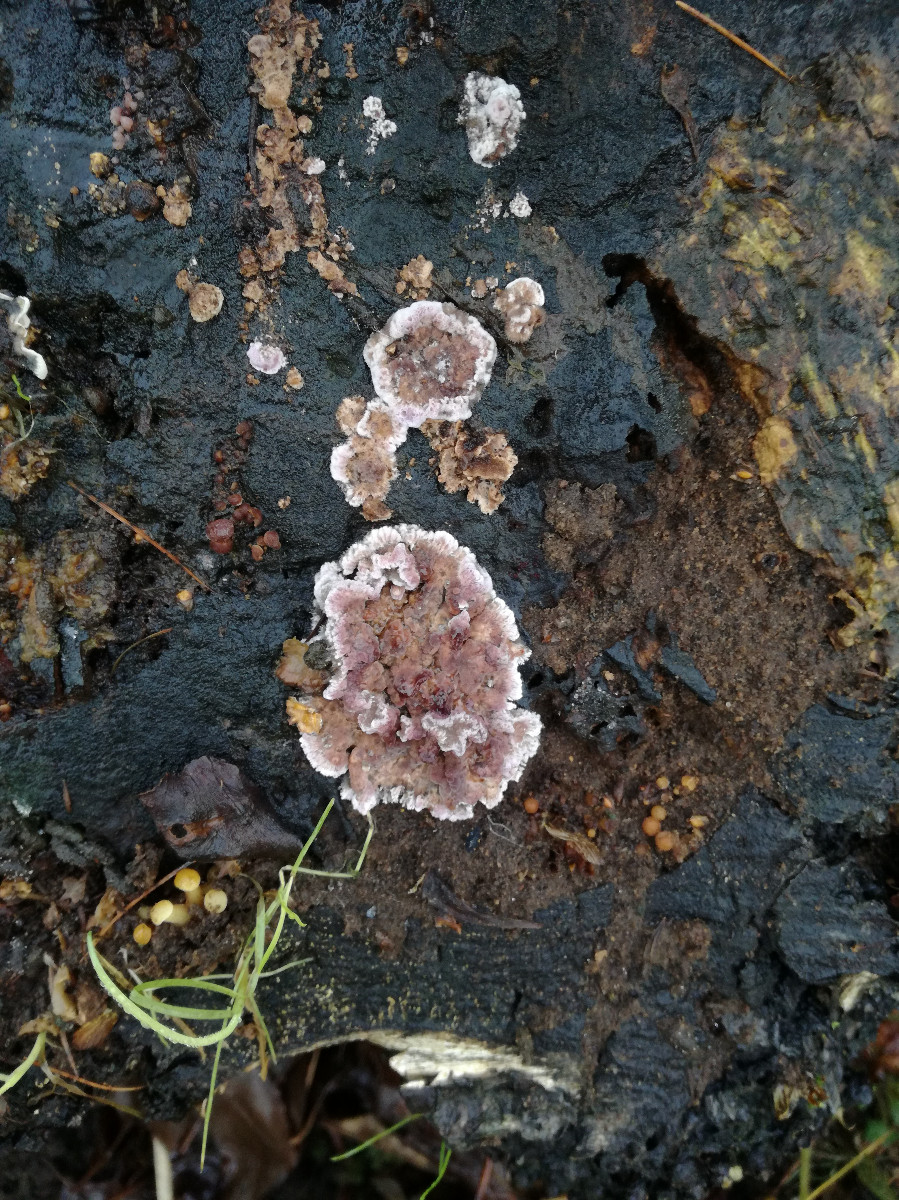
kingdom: Fungi
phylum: Ascomycota
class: Leotiomycetes
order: Helotiales
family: Gelatinodiscaceae
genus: Ascocoryne
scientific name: Ascocoryne sarcoides
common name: rødlilla sejskive
